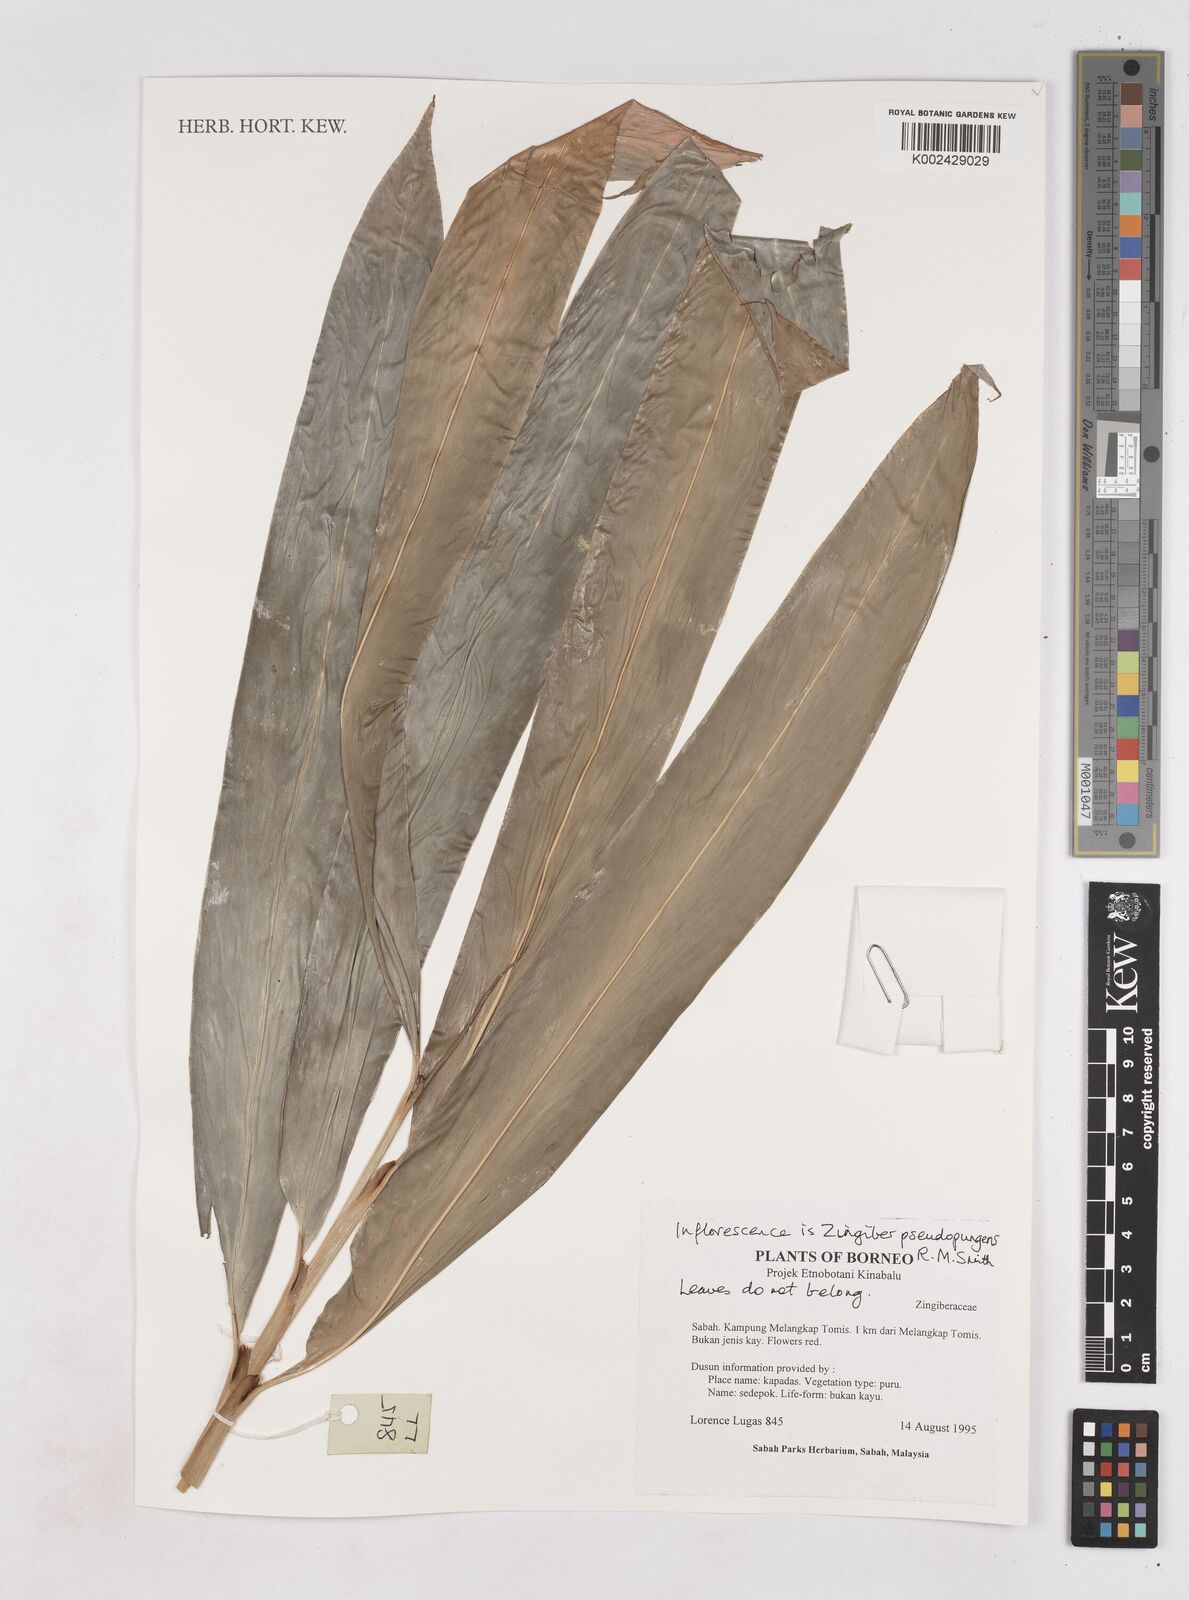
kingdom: Plantae
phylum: Tracheophyta
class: Liliopsida
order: Zingiberales
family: Zingiberaceae
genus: Zingiber
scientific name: Zingiber pseudopungens
